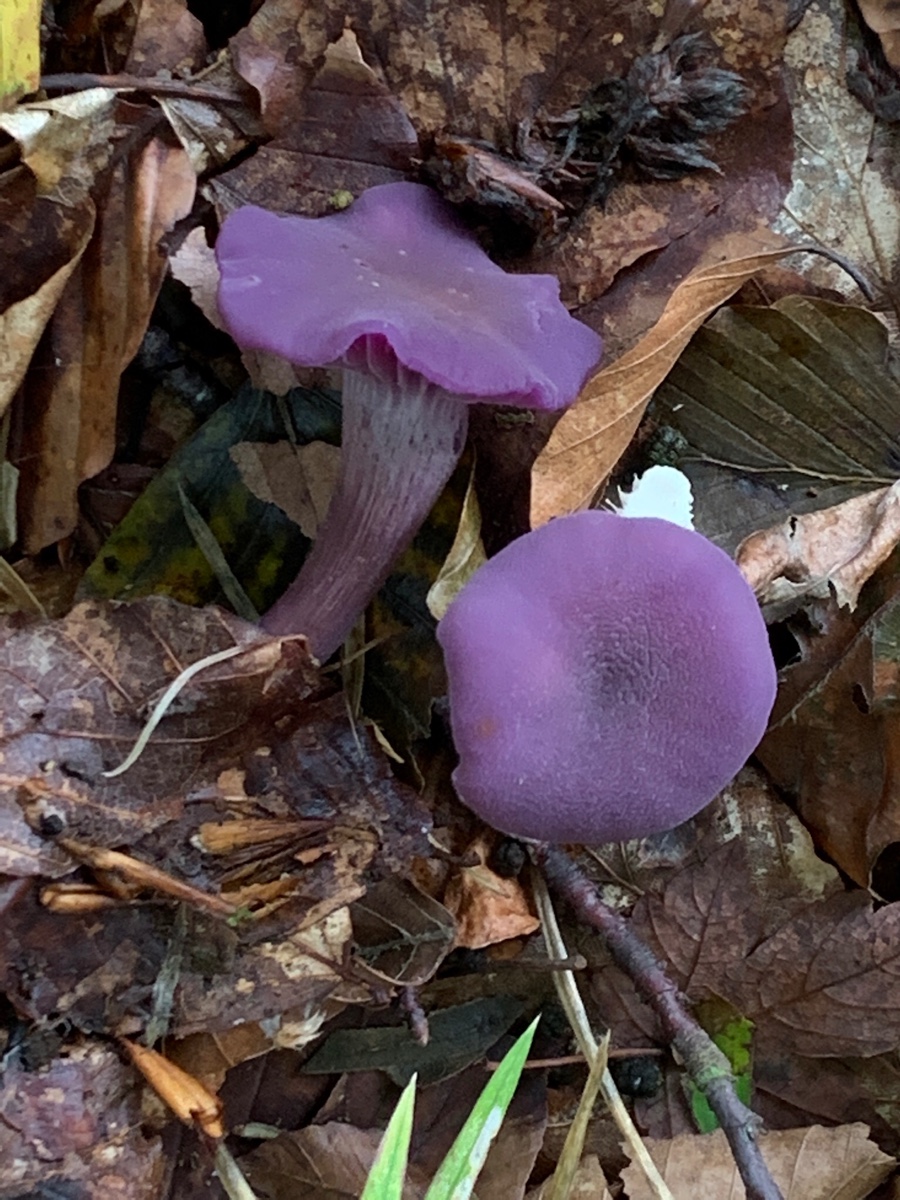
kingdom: Fungi
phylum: Basidiomycota
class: Agaricomycetes
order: Agaricales
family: Hydnangiaceae
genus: Laccaria
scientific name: Laccaria amethystina
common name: violet ametysthat
